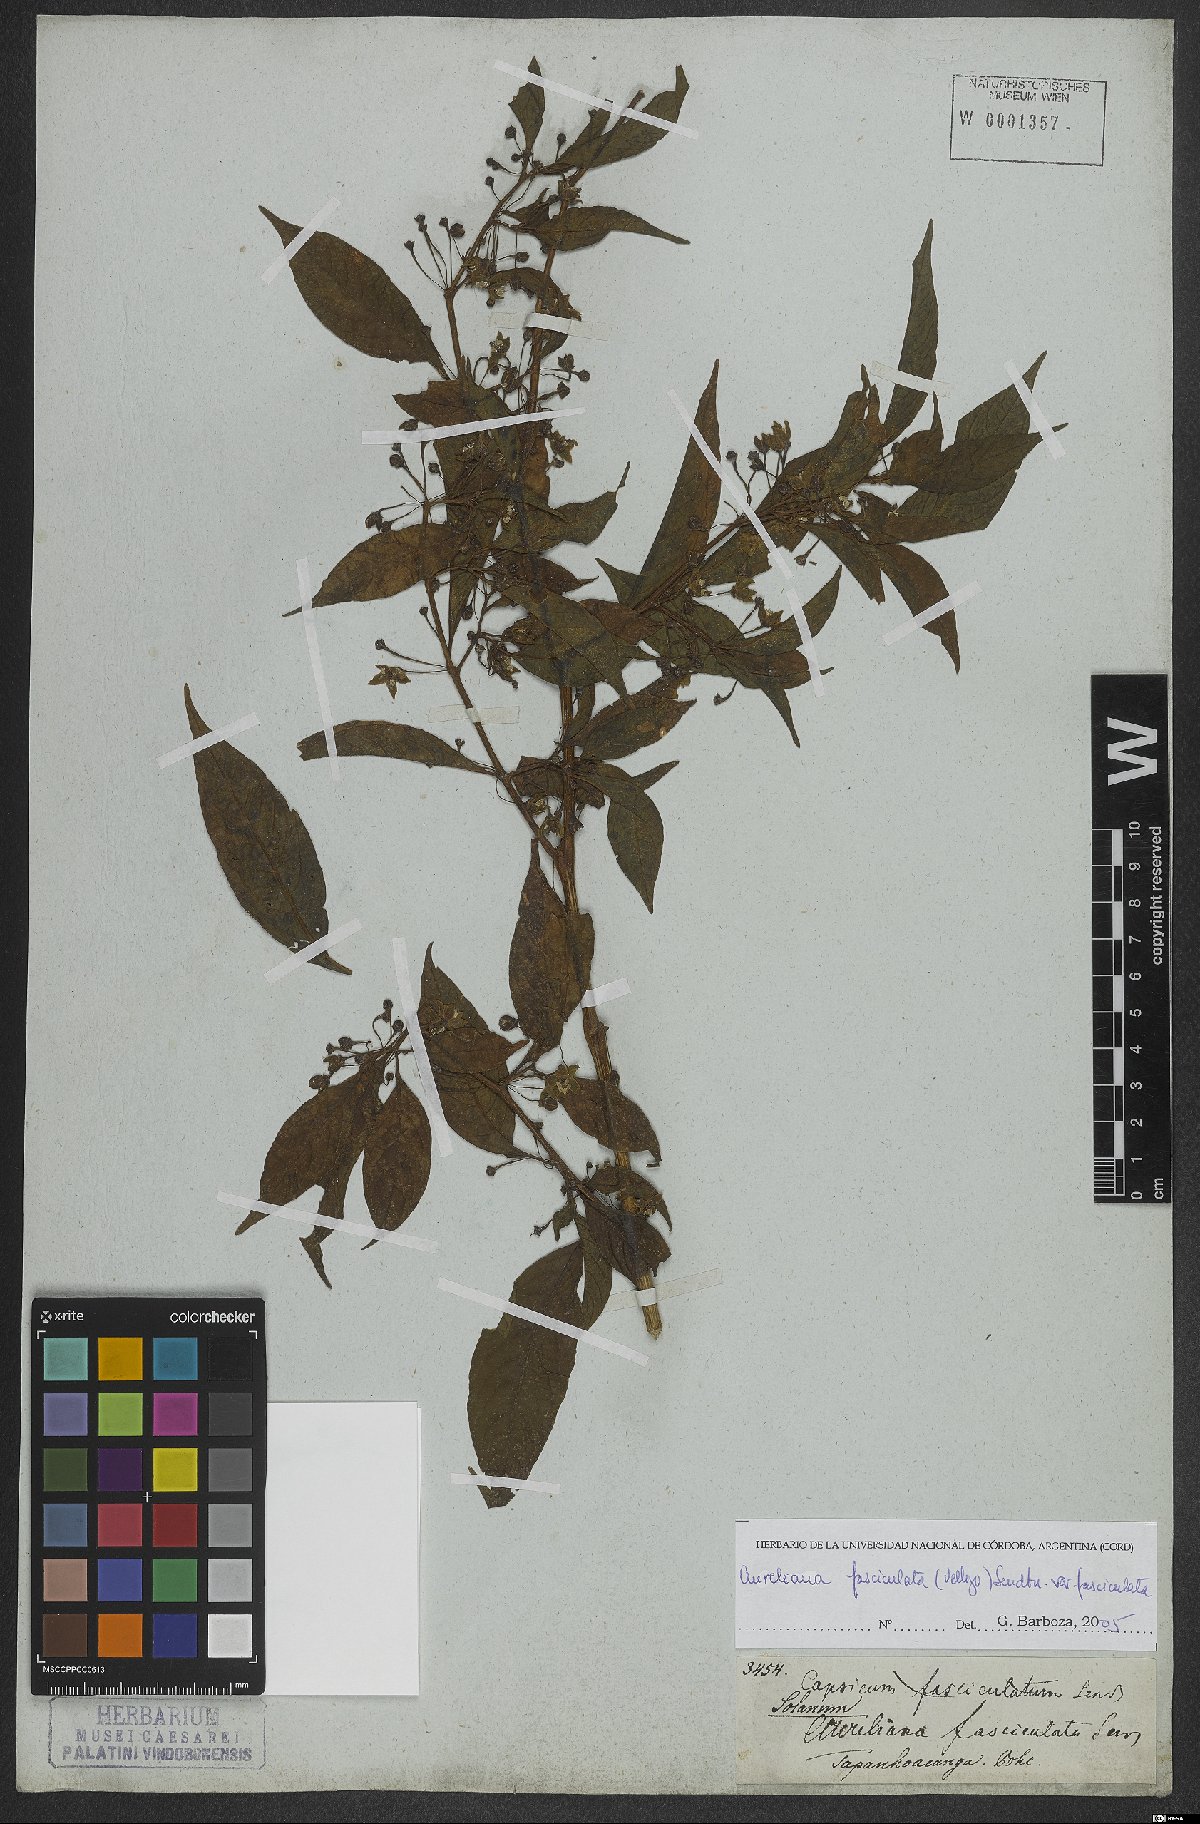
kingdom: Plantae
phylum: Tracheophyta
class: Magnoliopsida
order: Solanales
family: Solanaceae
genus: Athenaea
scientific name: Athenaea fasciculata
